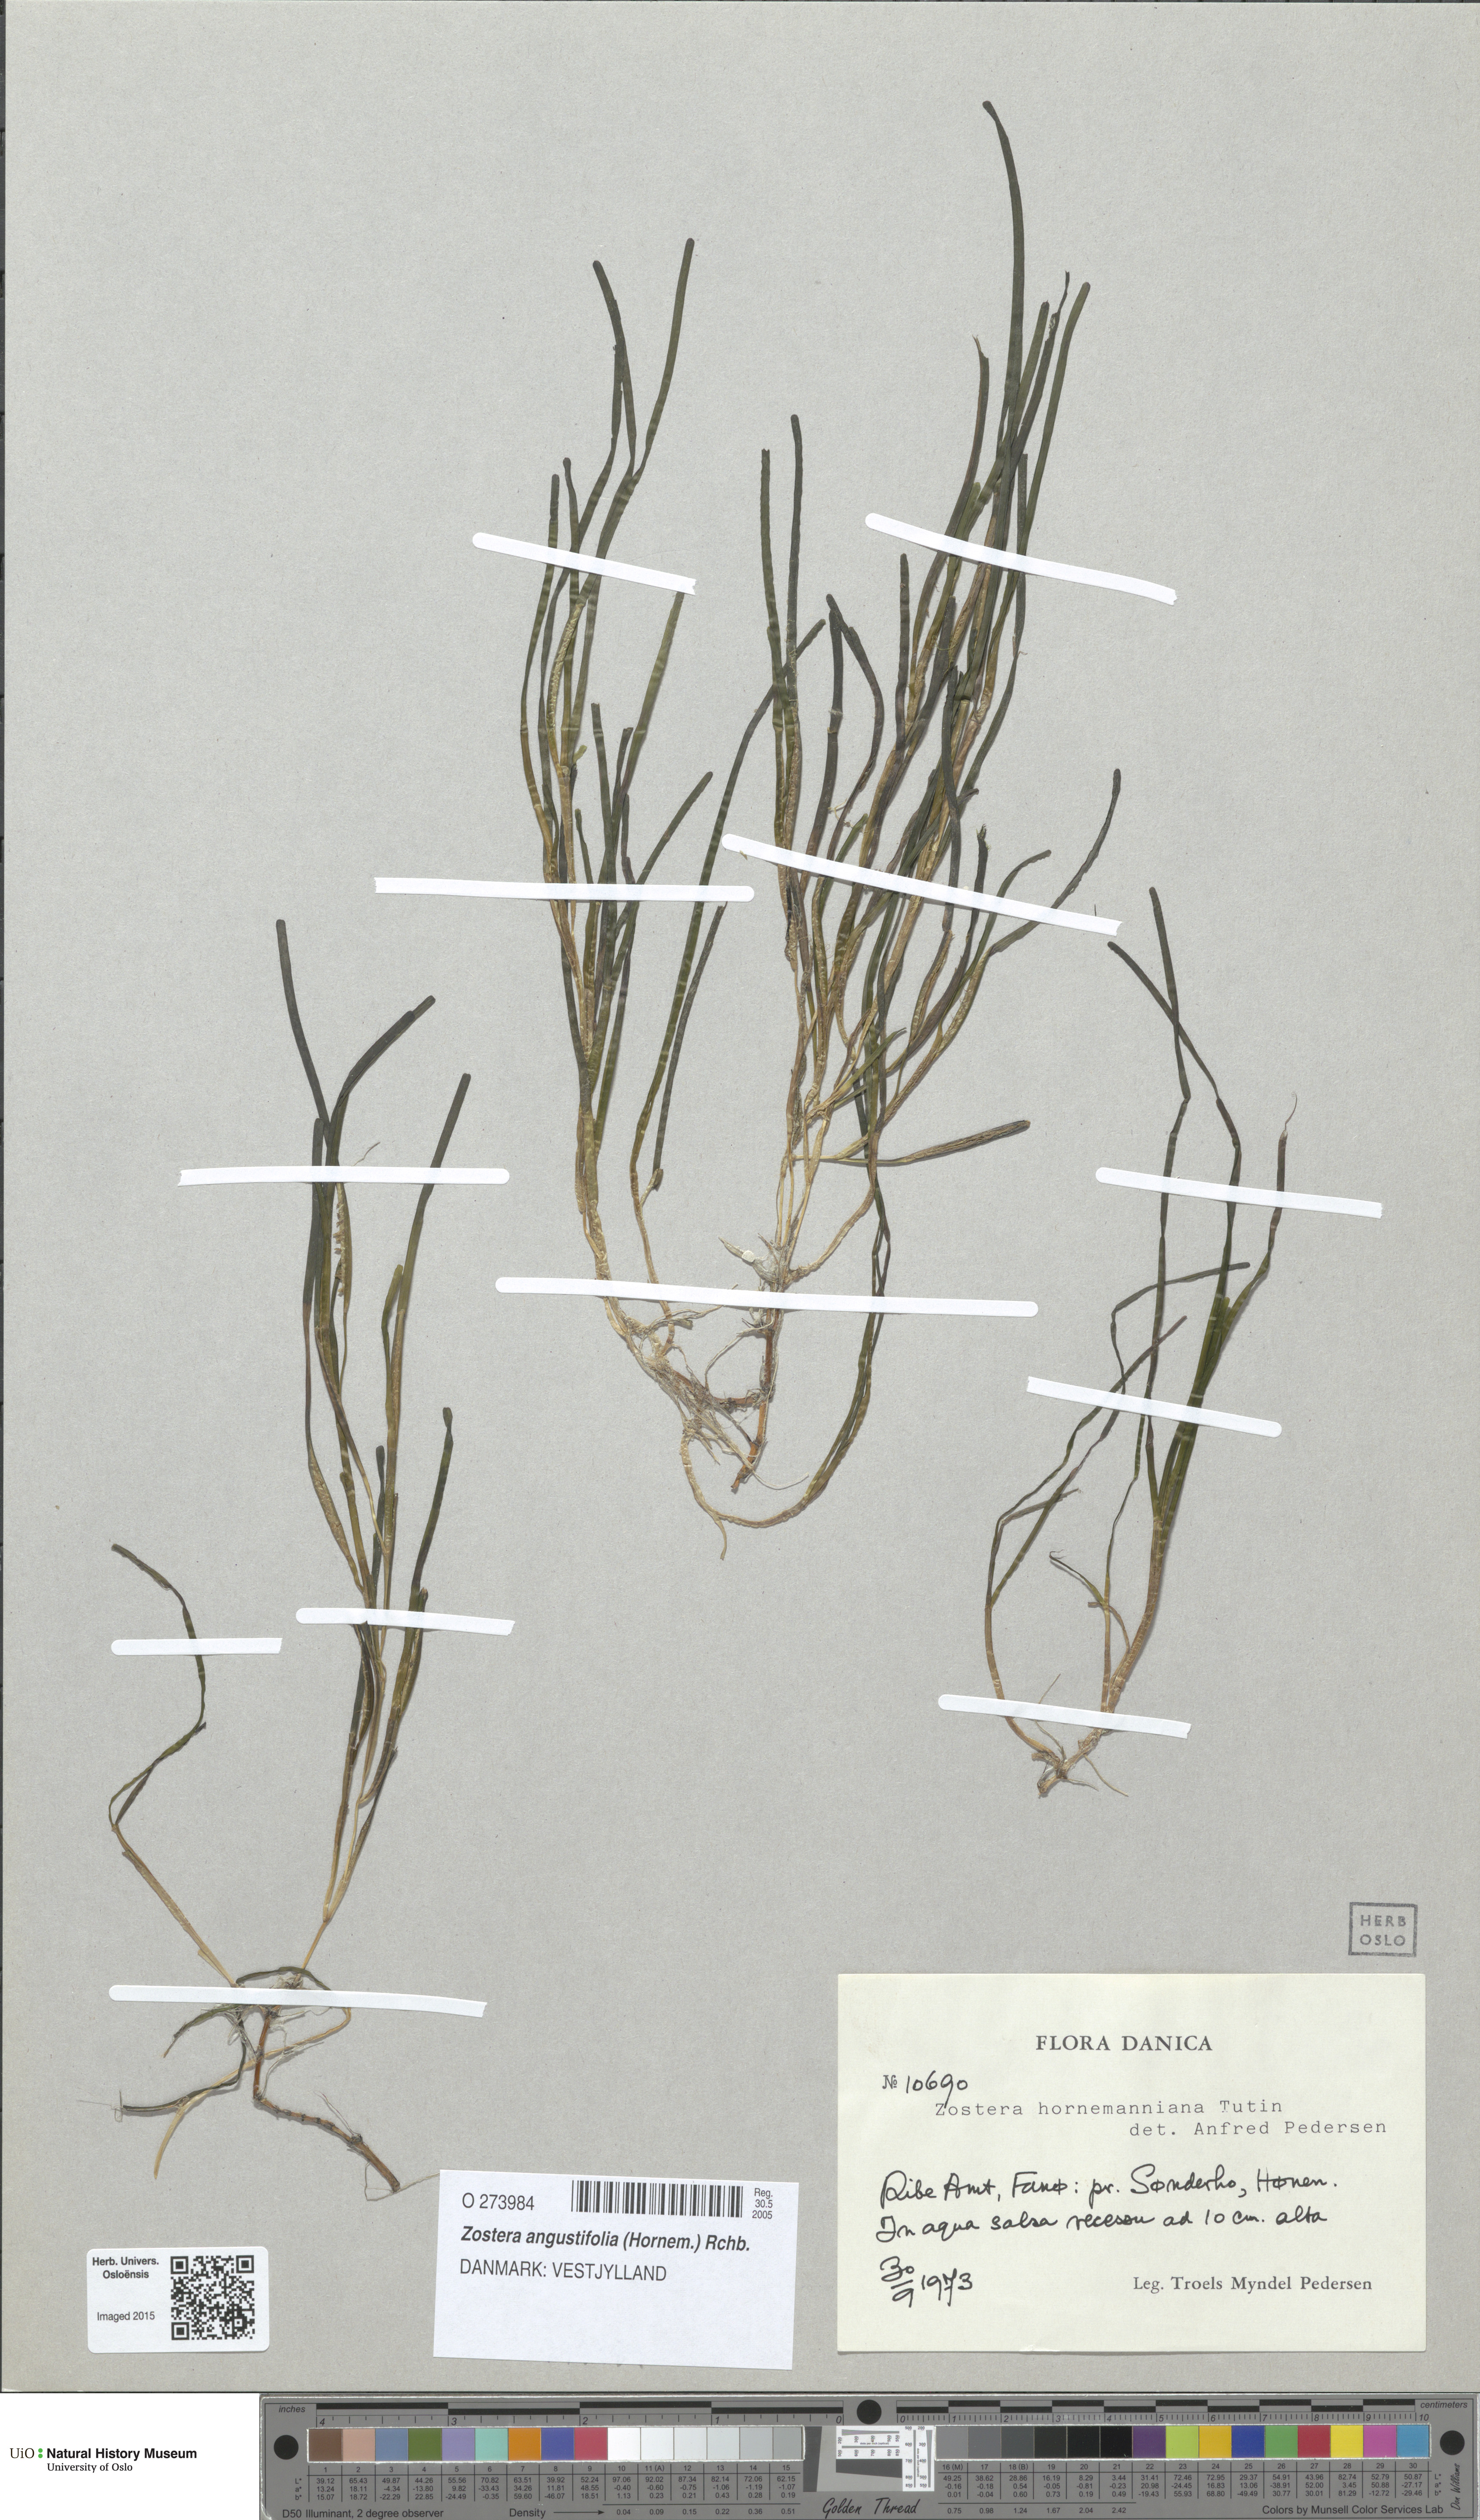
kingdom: Plantae
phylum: Tracheophyta
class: Liliopsida
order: Alismatales
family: Zosteraceae
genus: Zostera
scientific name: Zostera angustifolia
